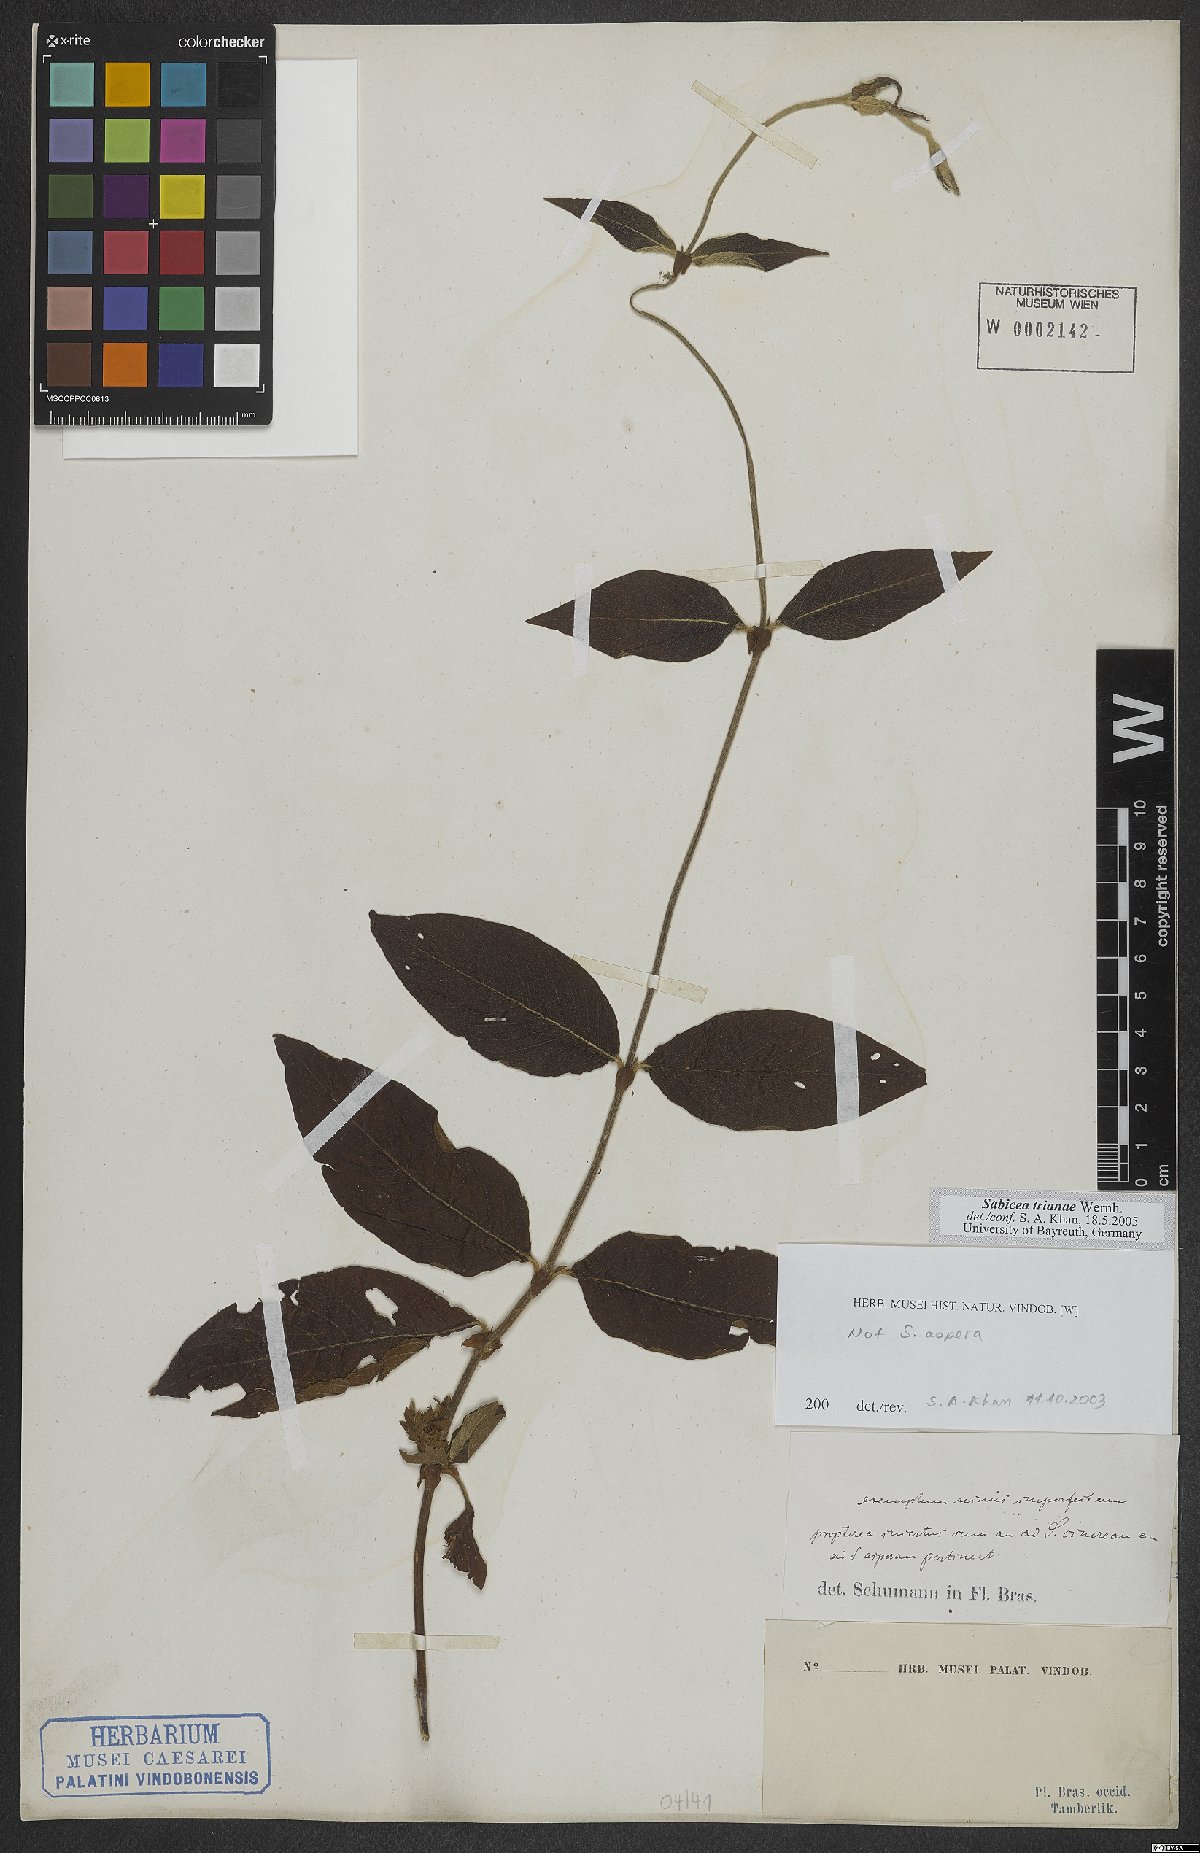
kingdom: Plantae
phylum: Tracheophyta
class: Magnoliopsida
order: Gentianales
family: Rubiaceae
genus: Sabicea
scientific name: Sabicea trianae
